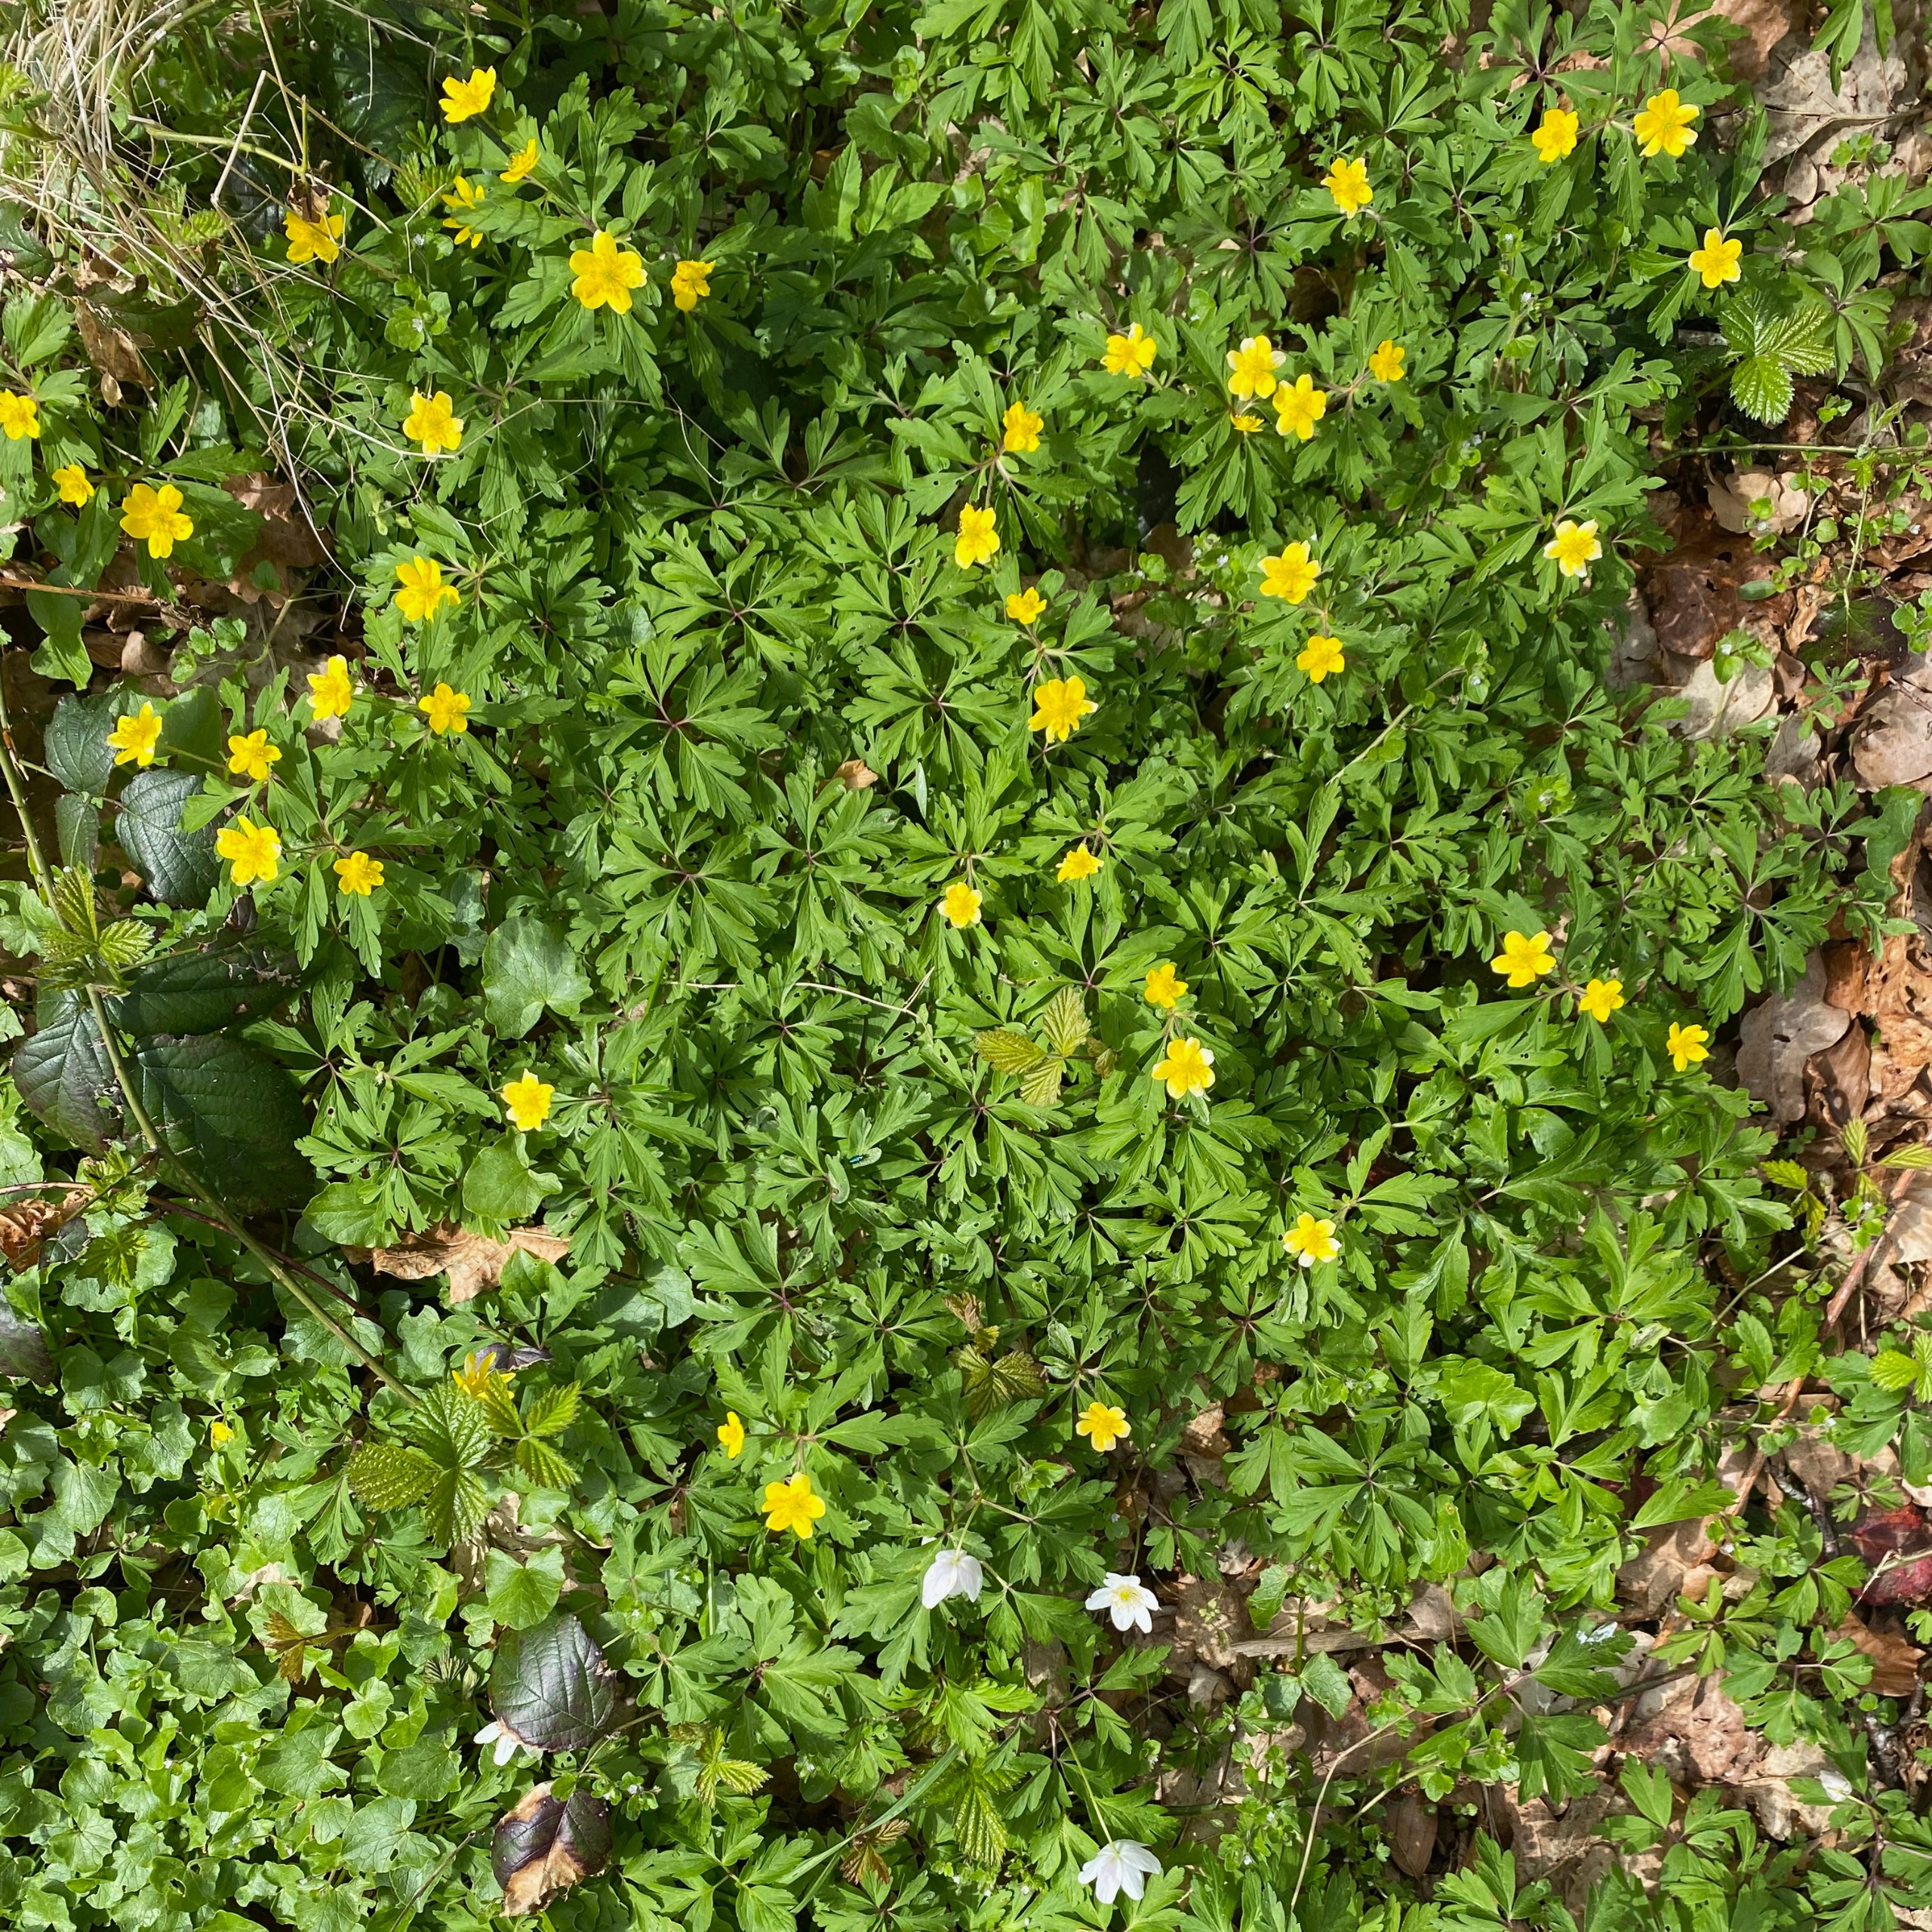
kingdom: Plantae
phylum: Tracheophyta
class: Magnoliopsida
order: Ranunculales
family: Ranunculaceae
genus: Anemone
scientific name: Anemone ranunculoides
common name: Gul anemone
